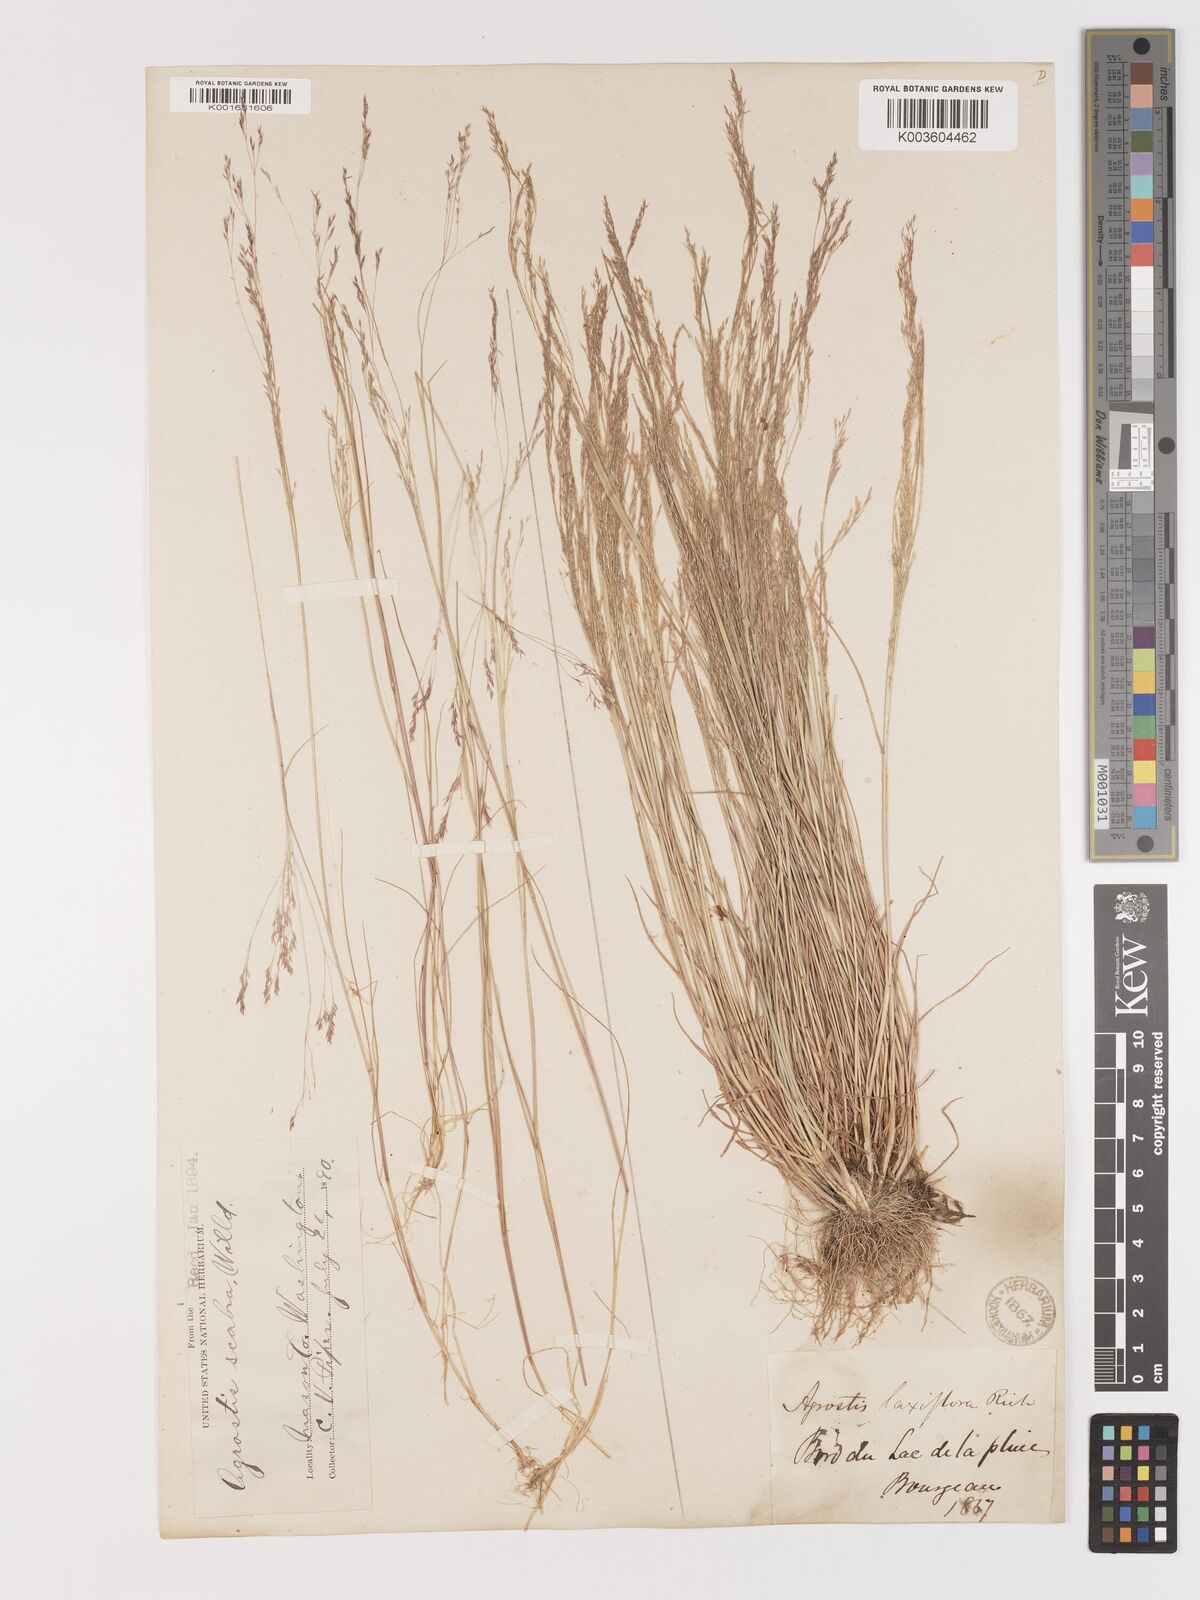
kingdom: Plantae
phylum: Tracheophyta
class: Liliopsida
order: Poales
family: Poaceae
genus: Agrostis
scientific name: Agrostis hyemalis
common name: Small bent
